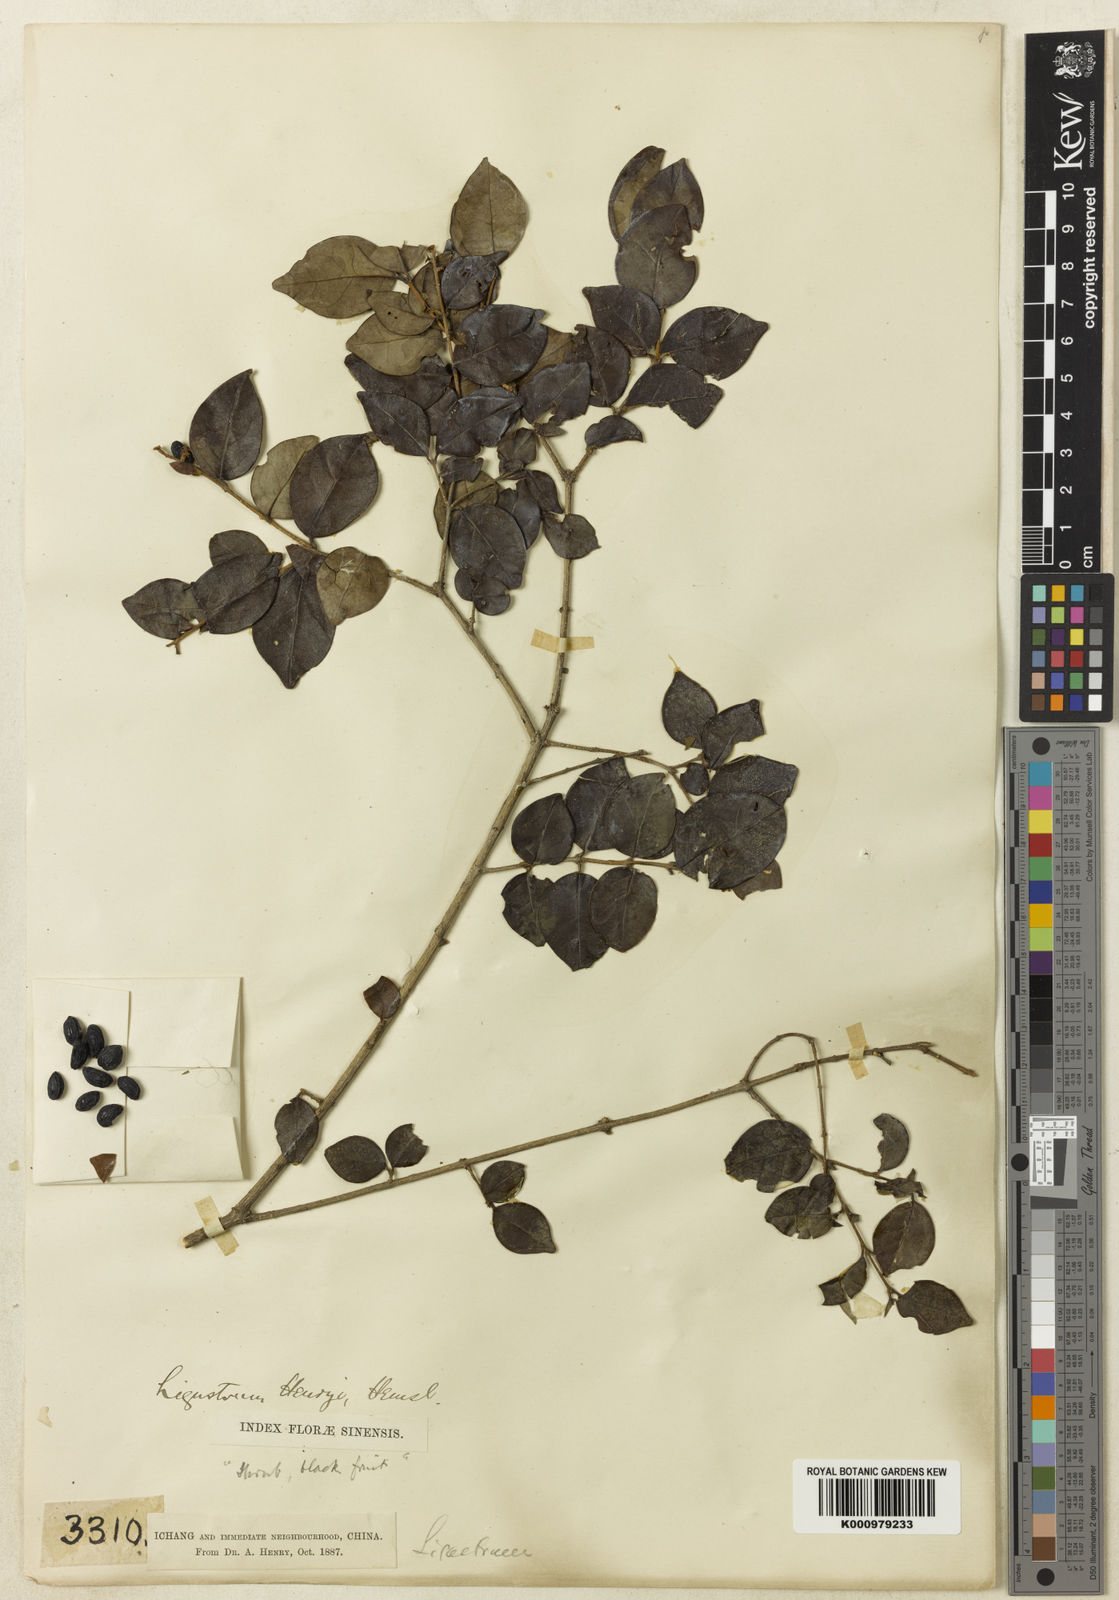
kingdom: Plantae
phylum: Tracheophyta
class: Magnoliopsida
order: Lamiales
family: Oleaceae
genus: Ligustrum
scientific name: Ligustrum henryi
